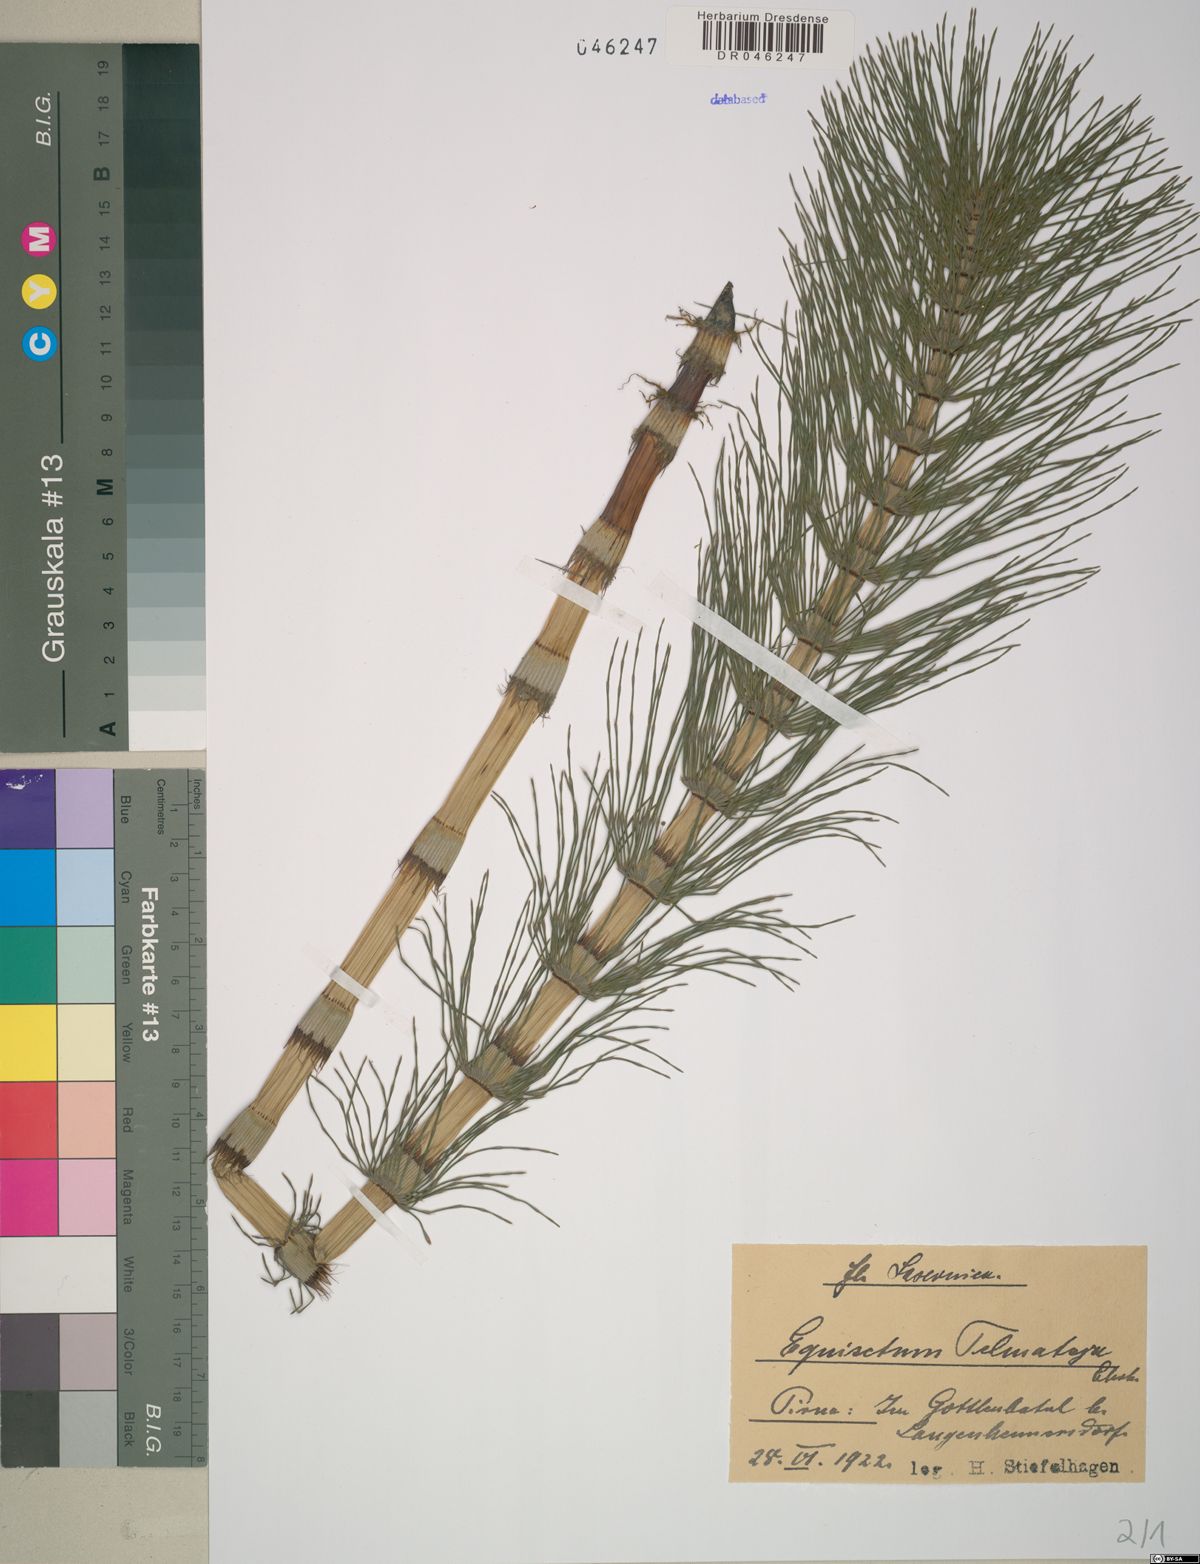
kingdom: Plantae
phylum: Tracheophyta
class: Polypodiopsida
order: Equisetales
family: Equisetaceae
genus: Equisetum
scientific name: Equisetum telmateia
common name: Great horsetail
